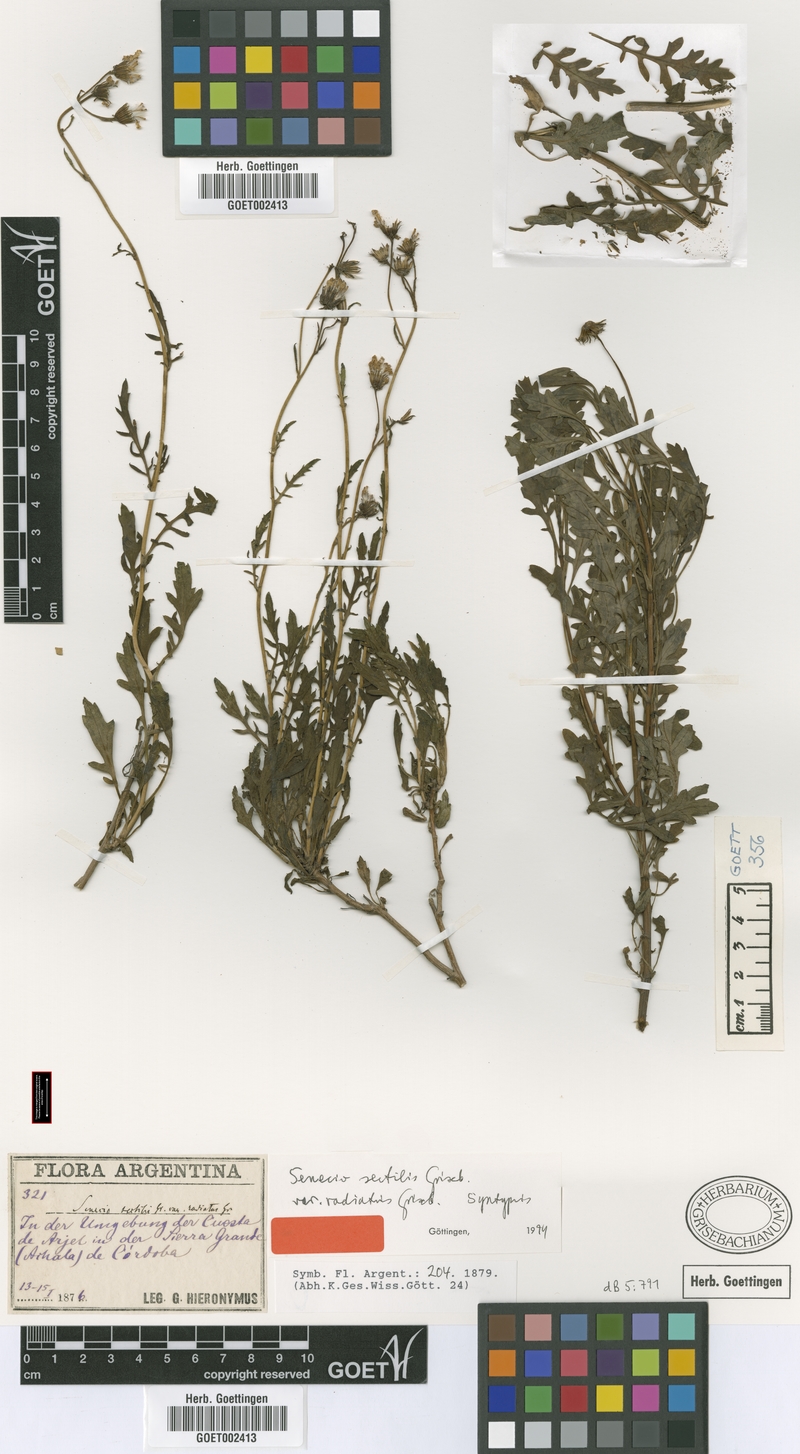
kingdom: Plantae
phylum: Tracheophyta
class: Magnoliopsida
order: Asterales
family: Asteraceae
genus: Senecio
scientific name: Senecio sectilis
